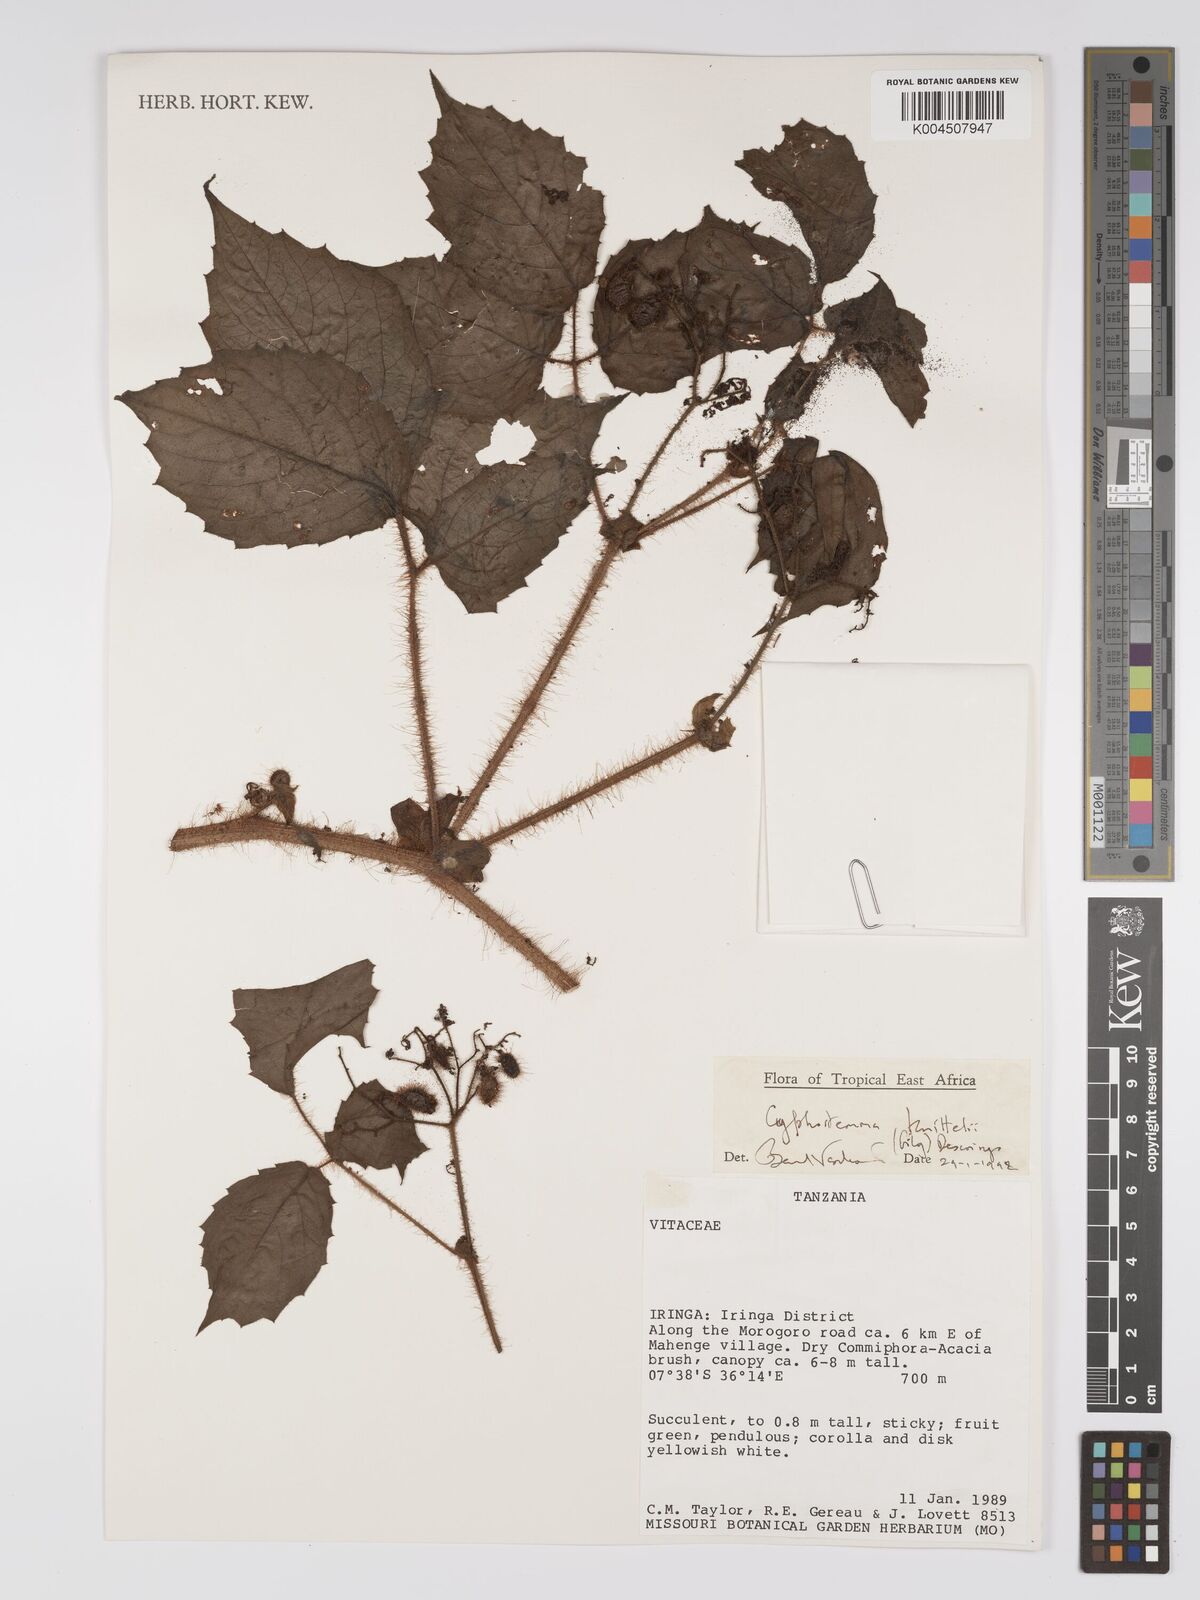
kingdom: Plantae
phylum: Tracheophyta
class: Magnoliopsida
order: Vitales
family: Vitaceae
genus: Cyphostemma
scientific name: Cyphostemma knittelii
